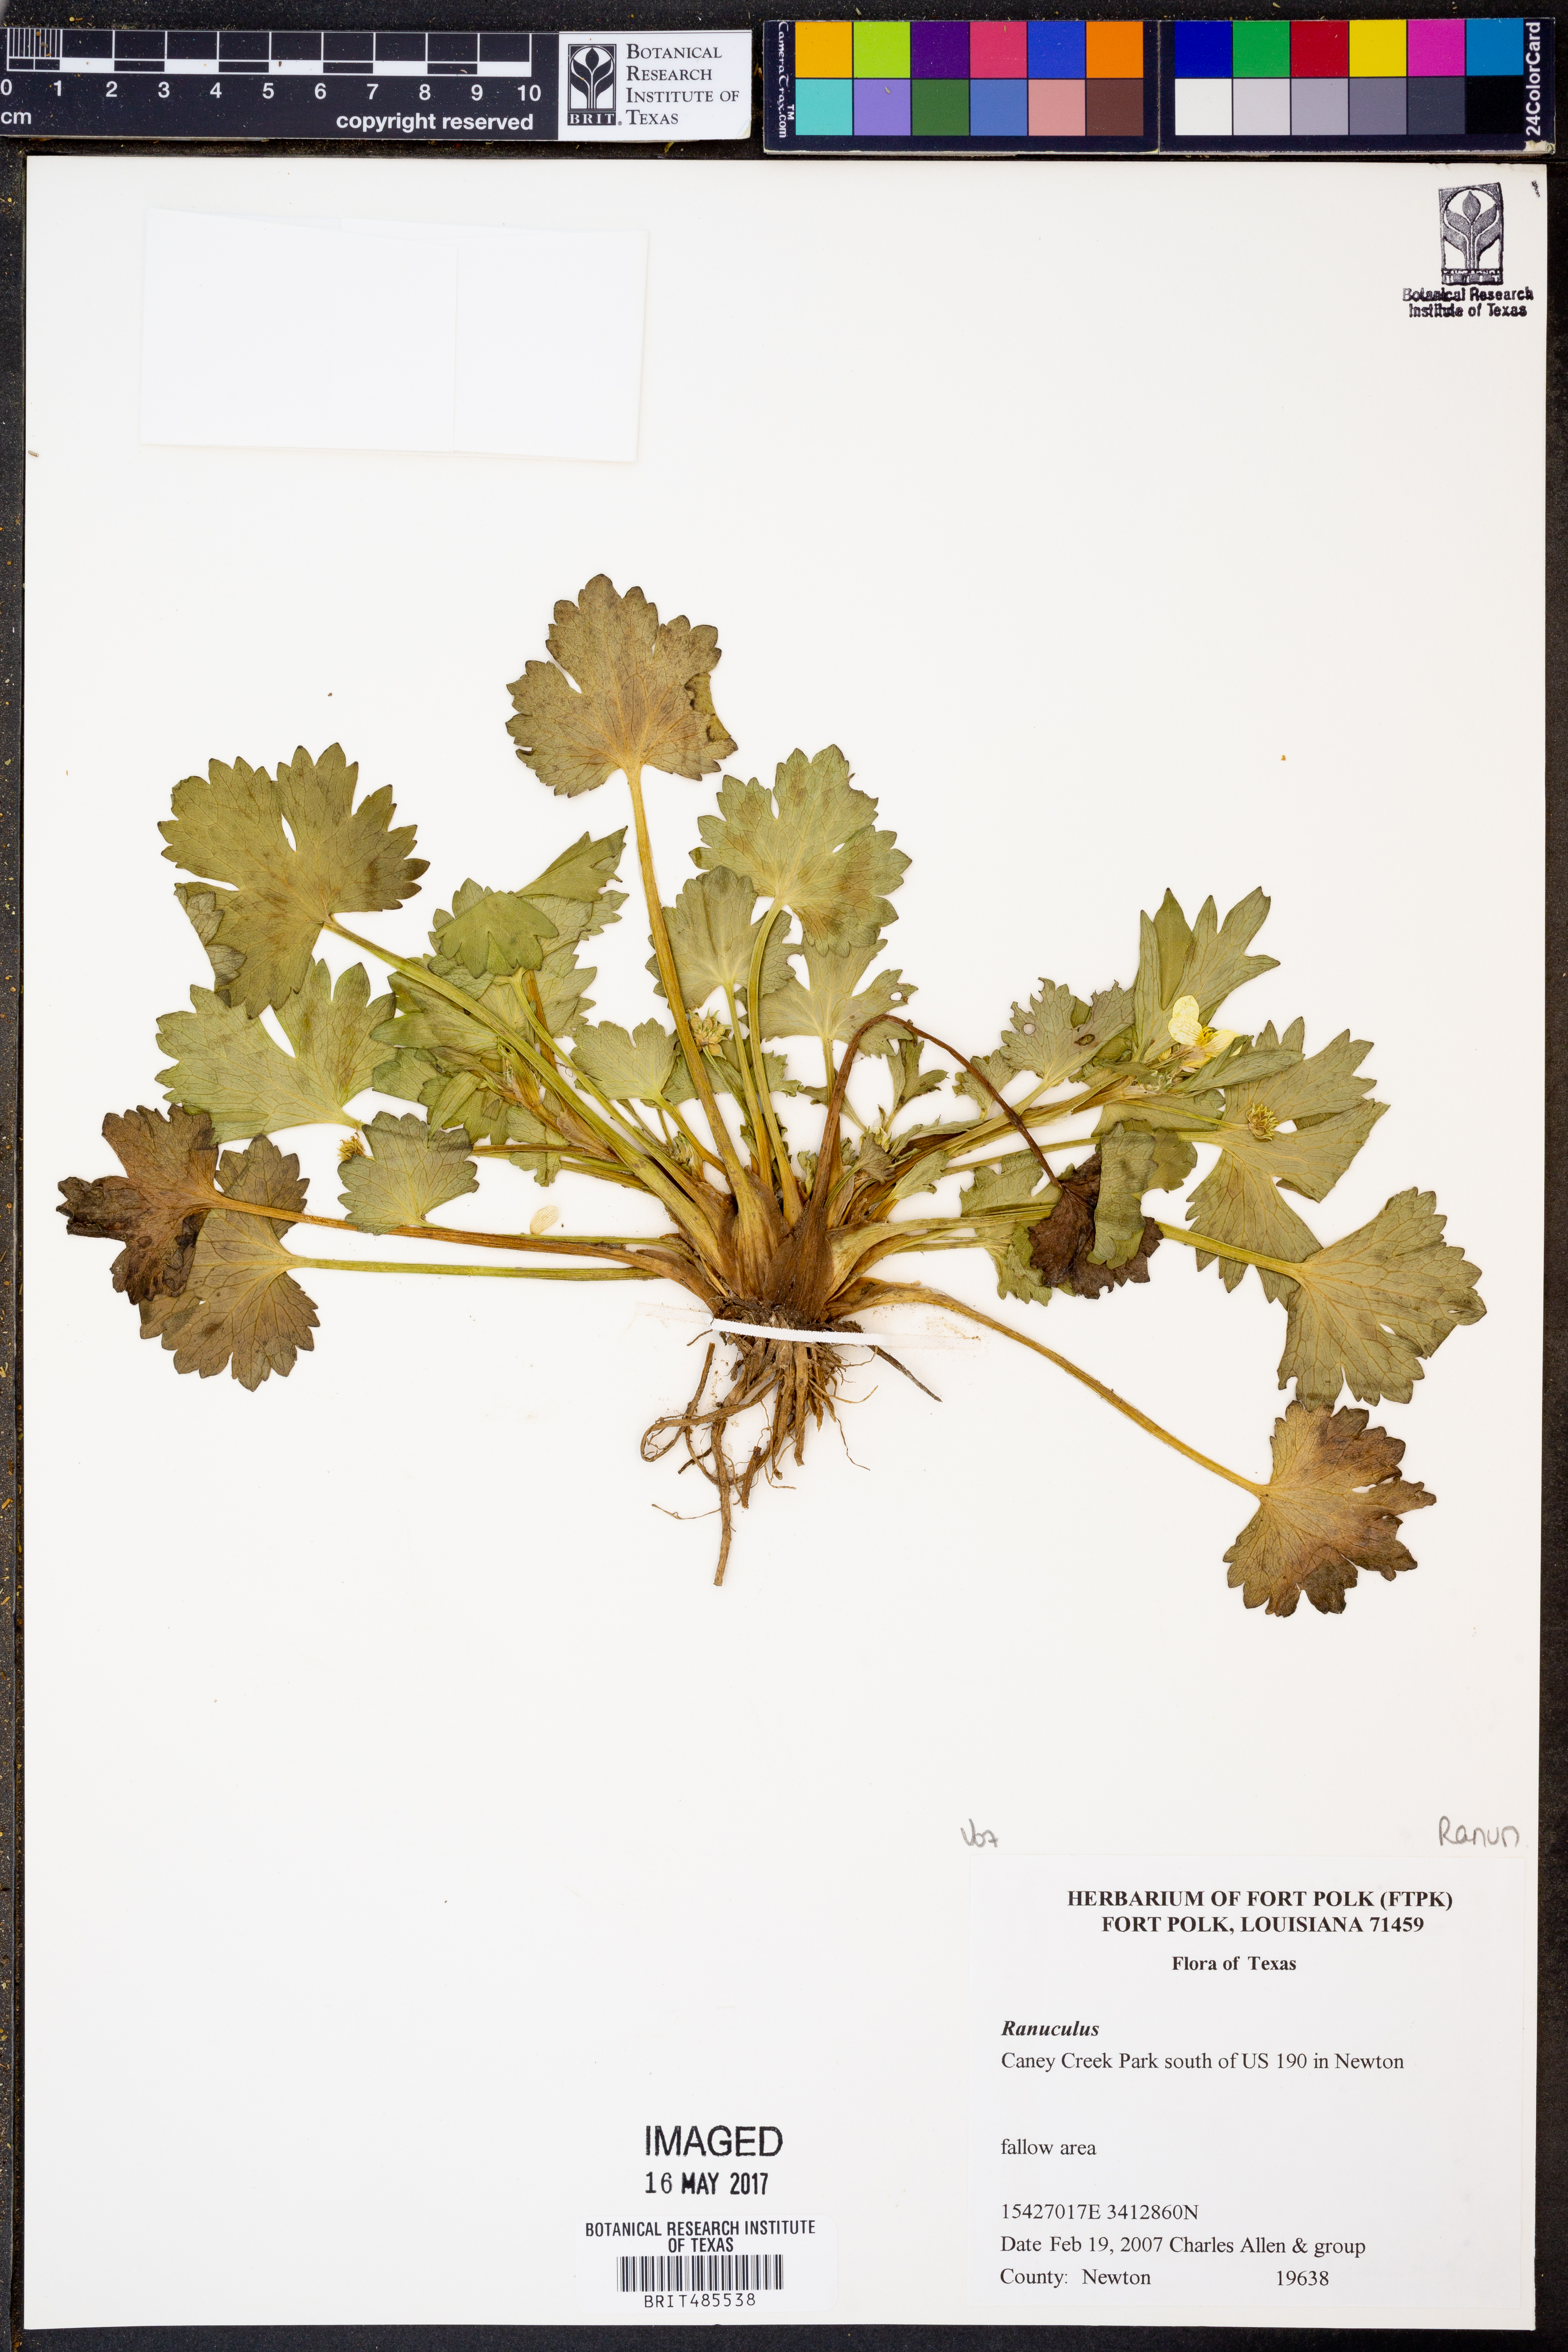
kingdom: Plantae
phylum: Tracheophyta
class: Magnoliopsida
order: Ranunculales
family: Ranunculaceae
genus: Ranunculus
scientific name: Ranunculus
